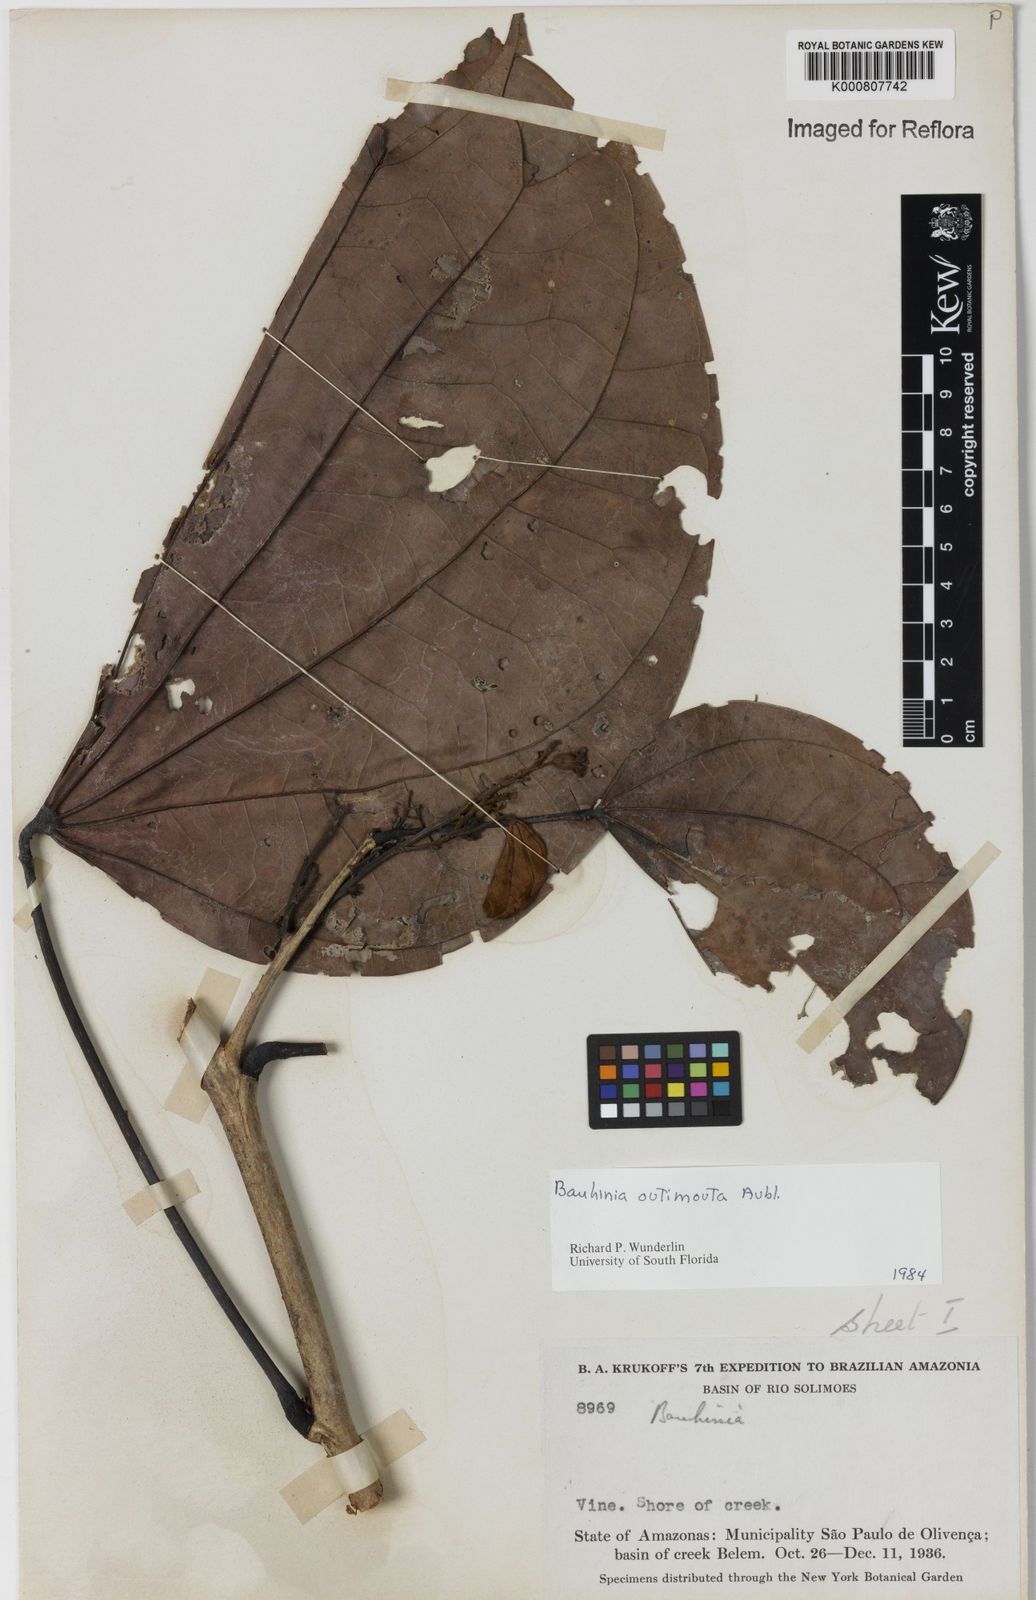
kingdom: Plantae
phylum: Tracheophyta
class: Magnoliopsida
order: Fabales
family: Fabaceae
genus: Schnella
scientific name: Schnella outimouta
